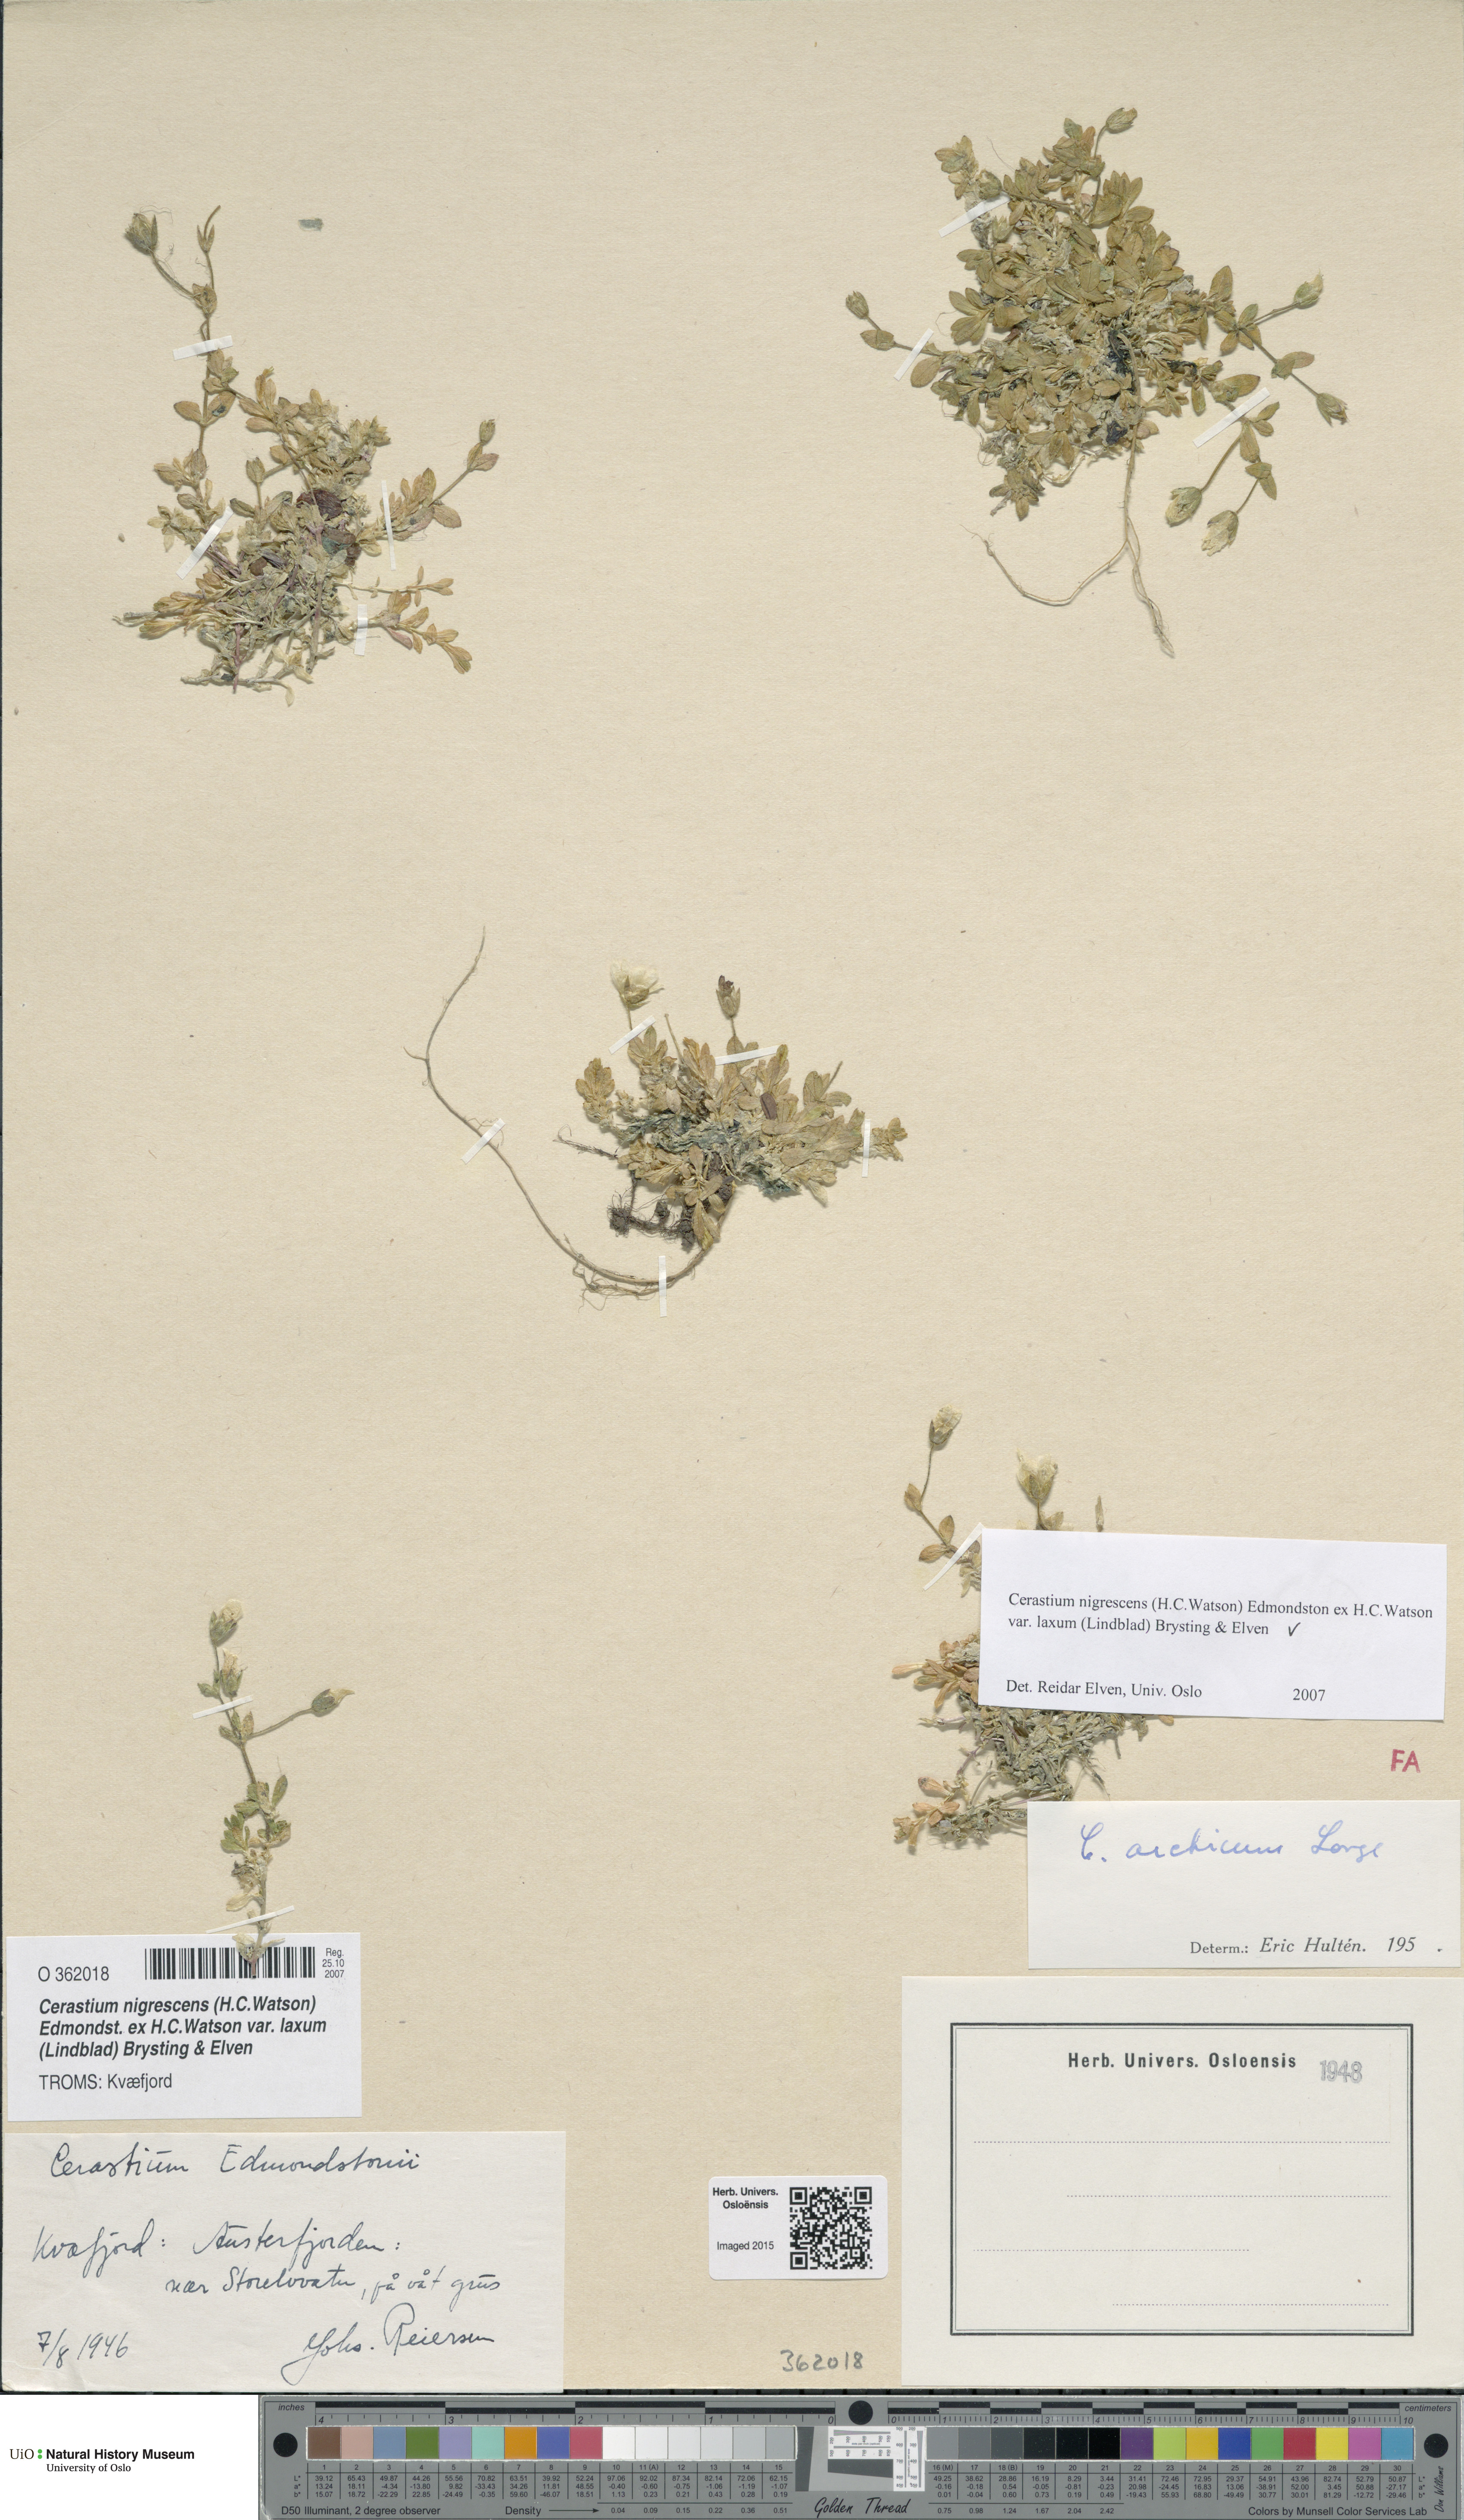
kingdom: Plantae
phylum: Tracheophyta
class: Magnoliopsida
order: Caryophyllales
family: Caryophyllaceae
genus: Cerastium
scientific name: Cerastium nigrescens
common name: Shetland mouse-ear
